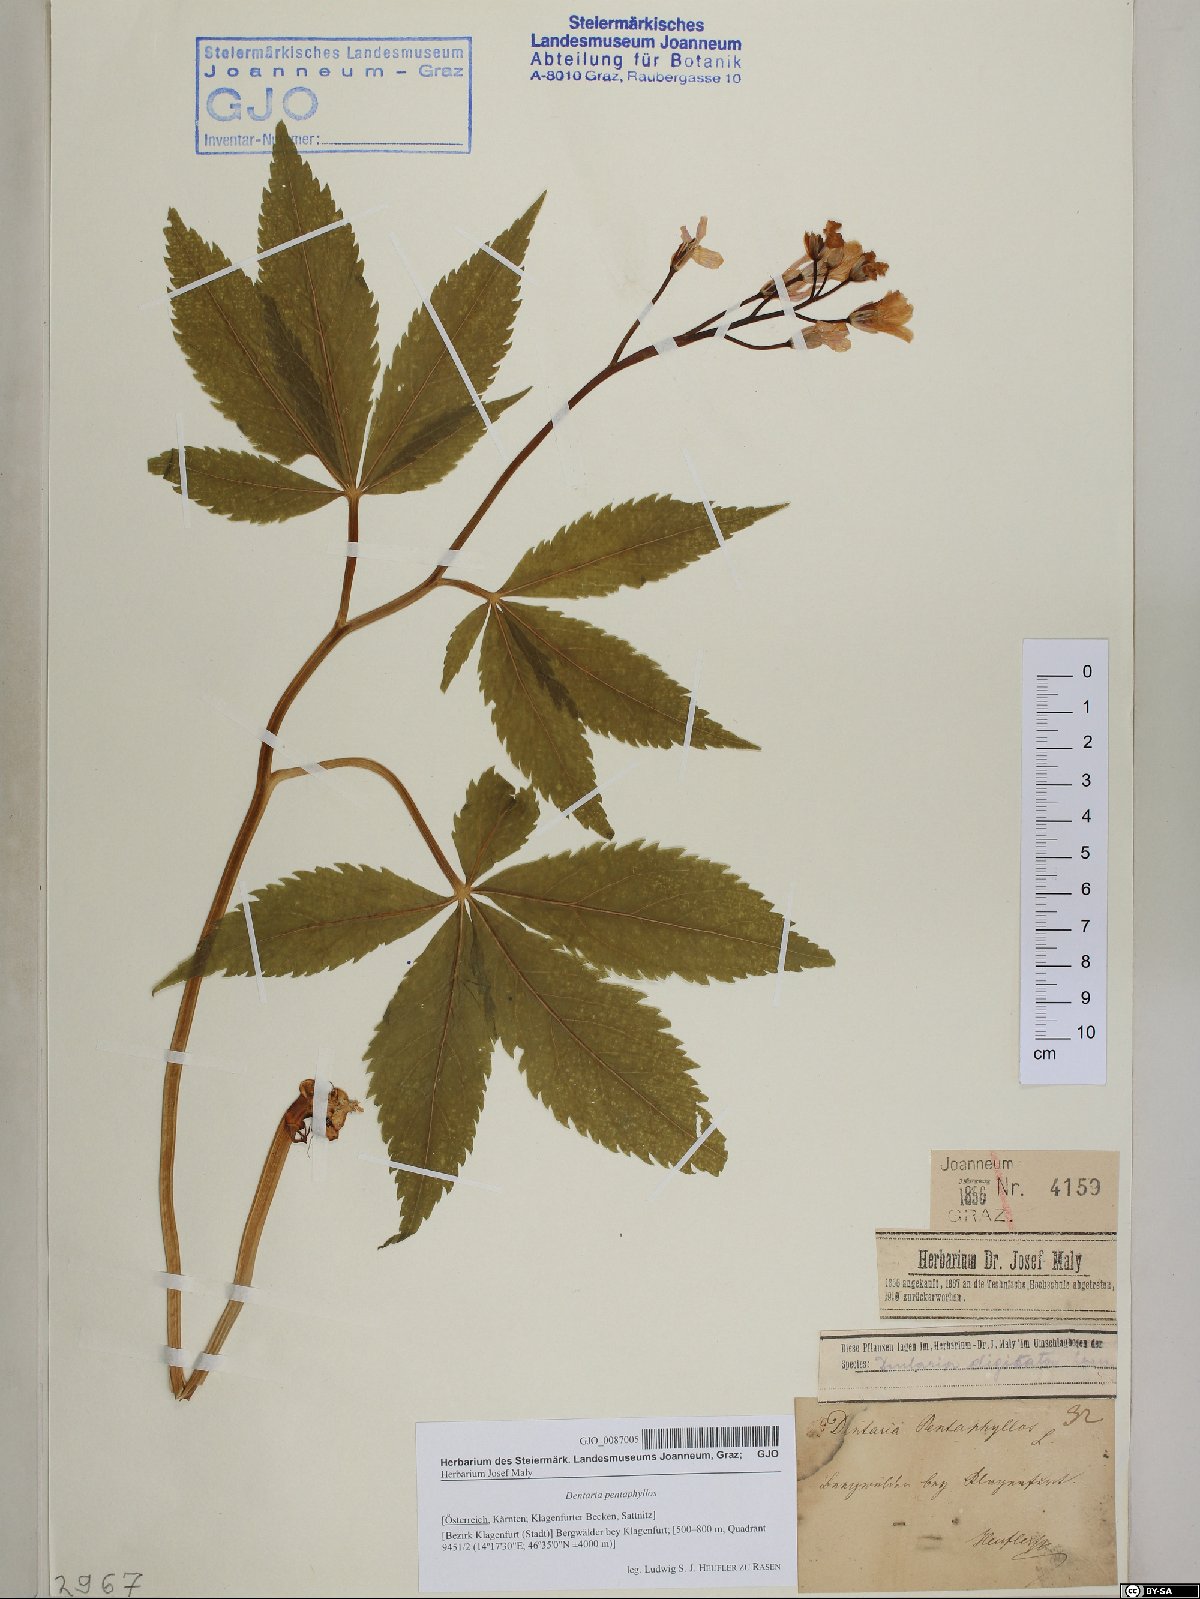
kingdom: Plantae
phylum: Tracheophyta
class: Magnoliopsida
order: Brassicales
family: Brassicaceae
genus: Cardamine
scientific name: Cardamine pentaphyllos
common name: Five-leaflet bitter-cress
